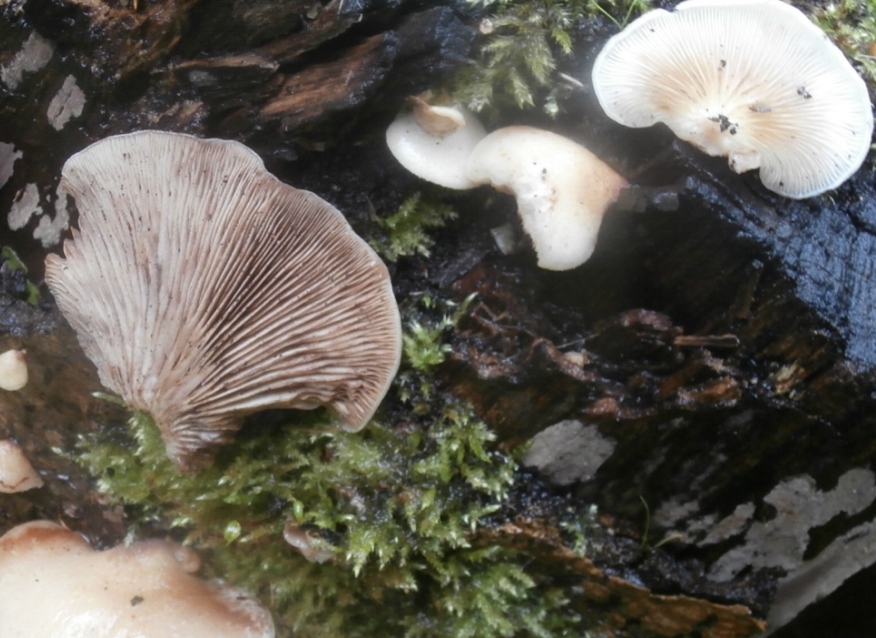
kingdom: Fungi
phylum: Basidiomycota
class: Agaricomycetes
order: Agaricales
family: Crepidotaceae
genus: Crepidotus
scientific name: Crepidotus mollis
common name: blød muslingesvamp
